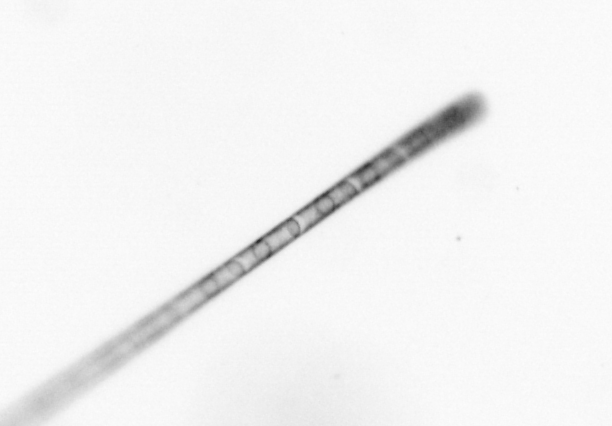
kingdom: Chromista
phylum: Ochrophyta
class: Bacillariophyceae
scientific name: Bacillariophyceae
